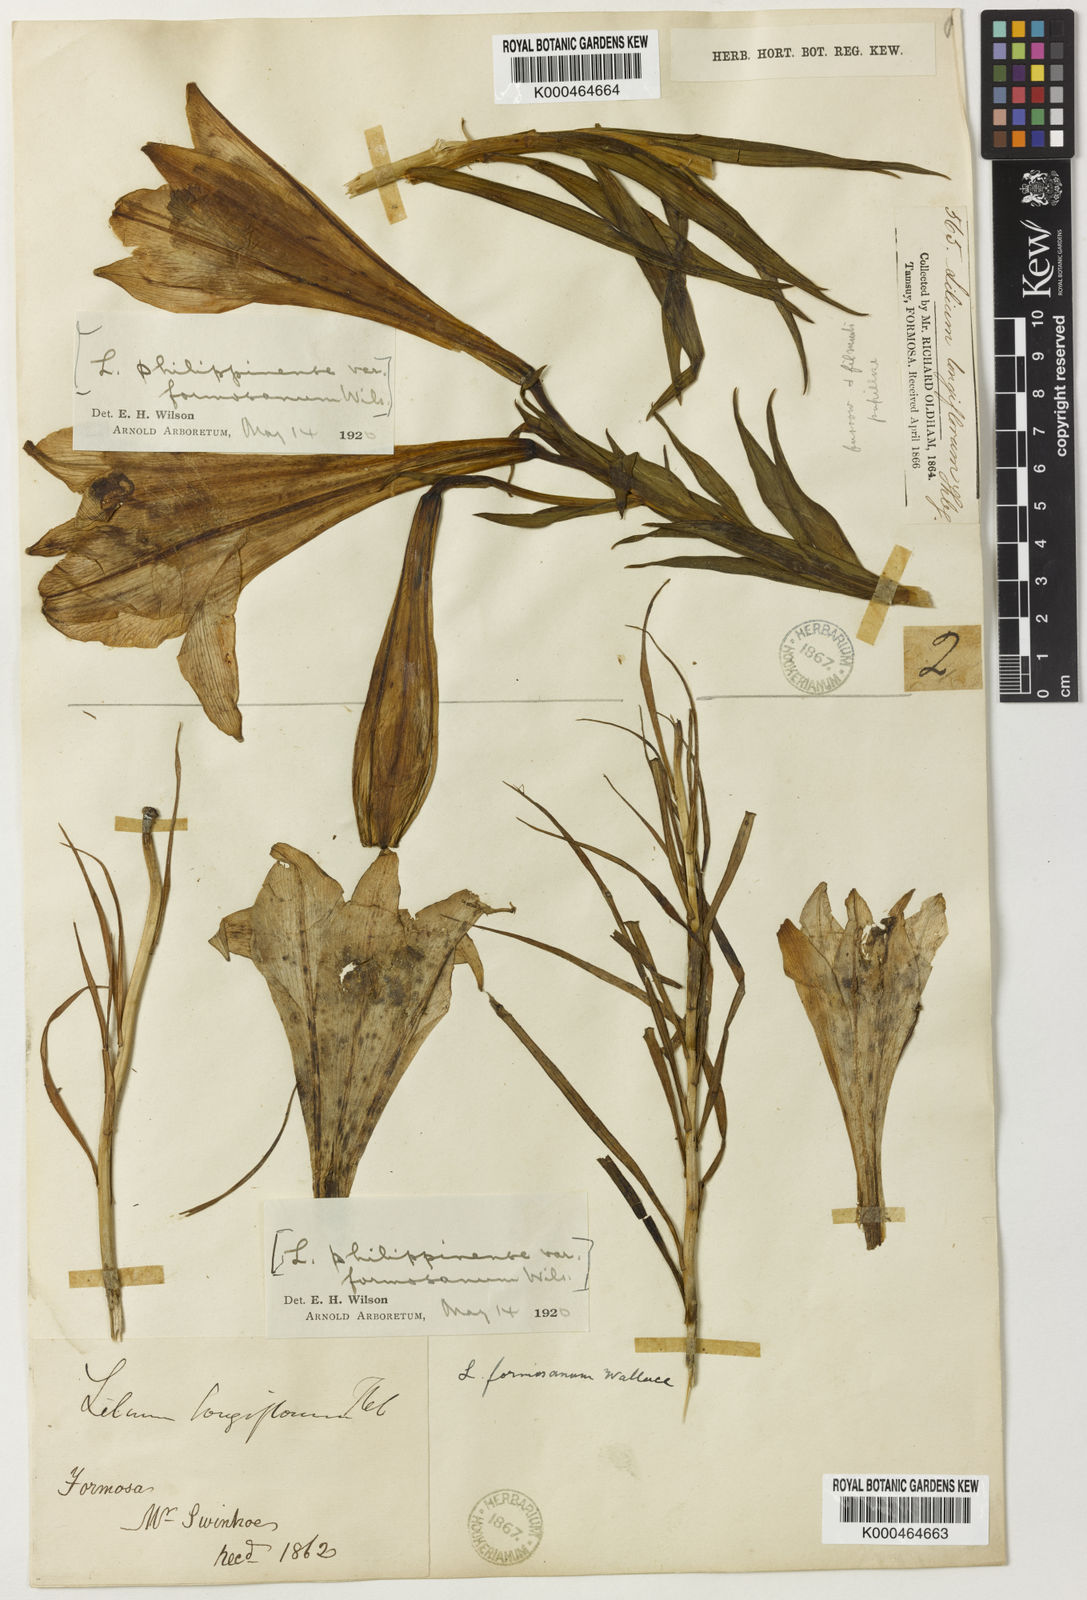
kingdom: Plantae
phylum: Tracheophyta
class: Liliopsida
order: Liliales
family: Liliaceae
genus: Lilium
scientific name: Lilium formosanum
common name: Formosa lily
